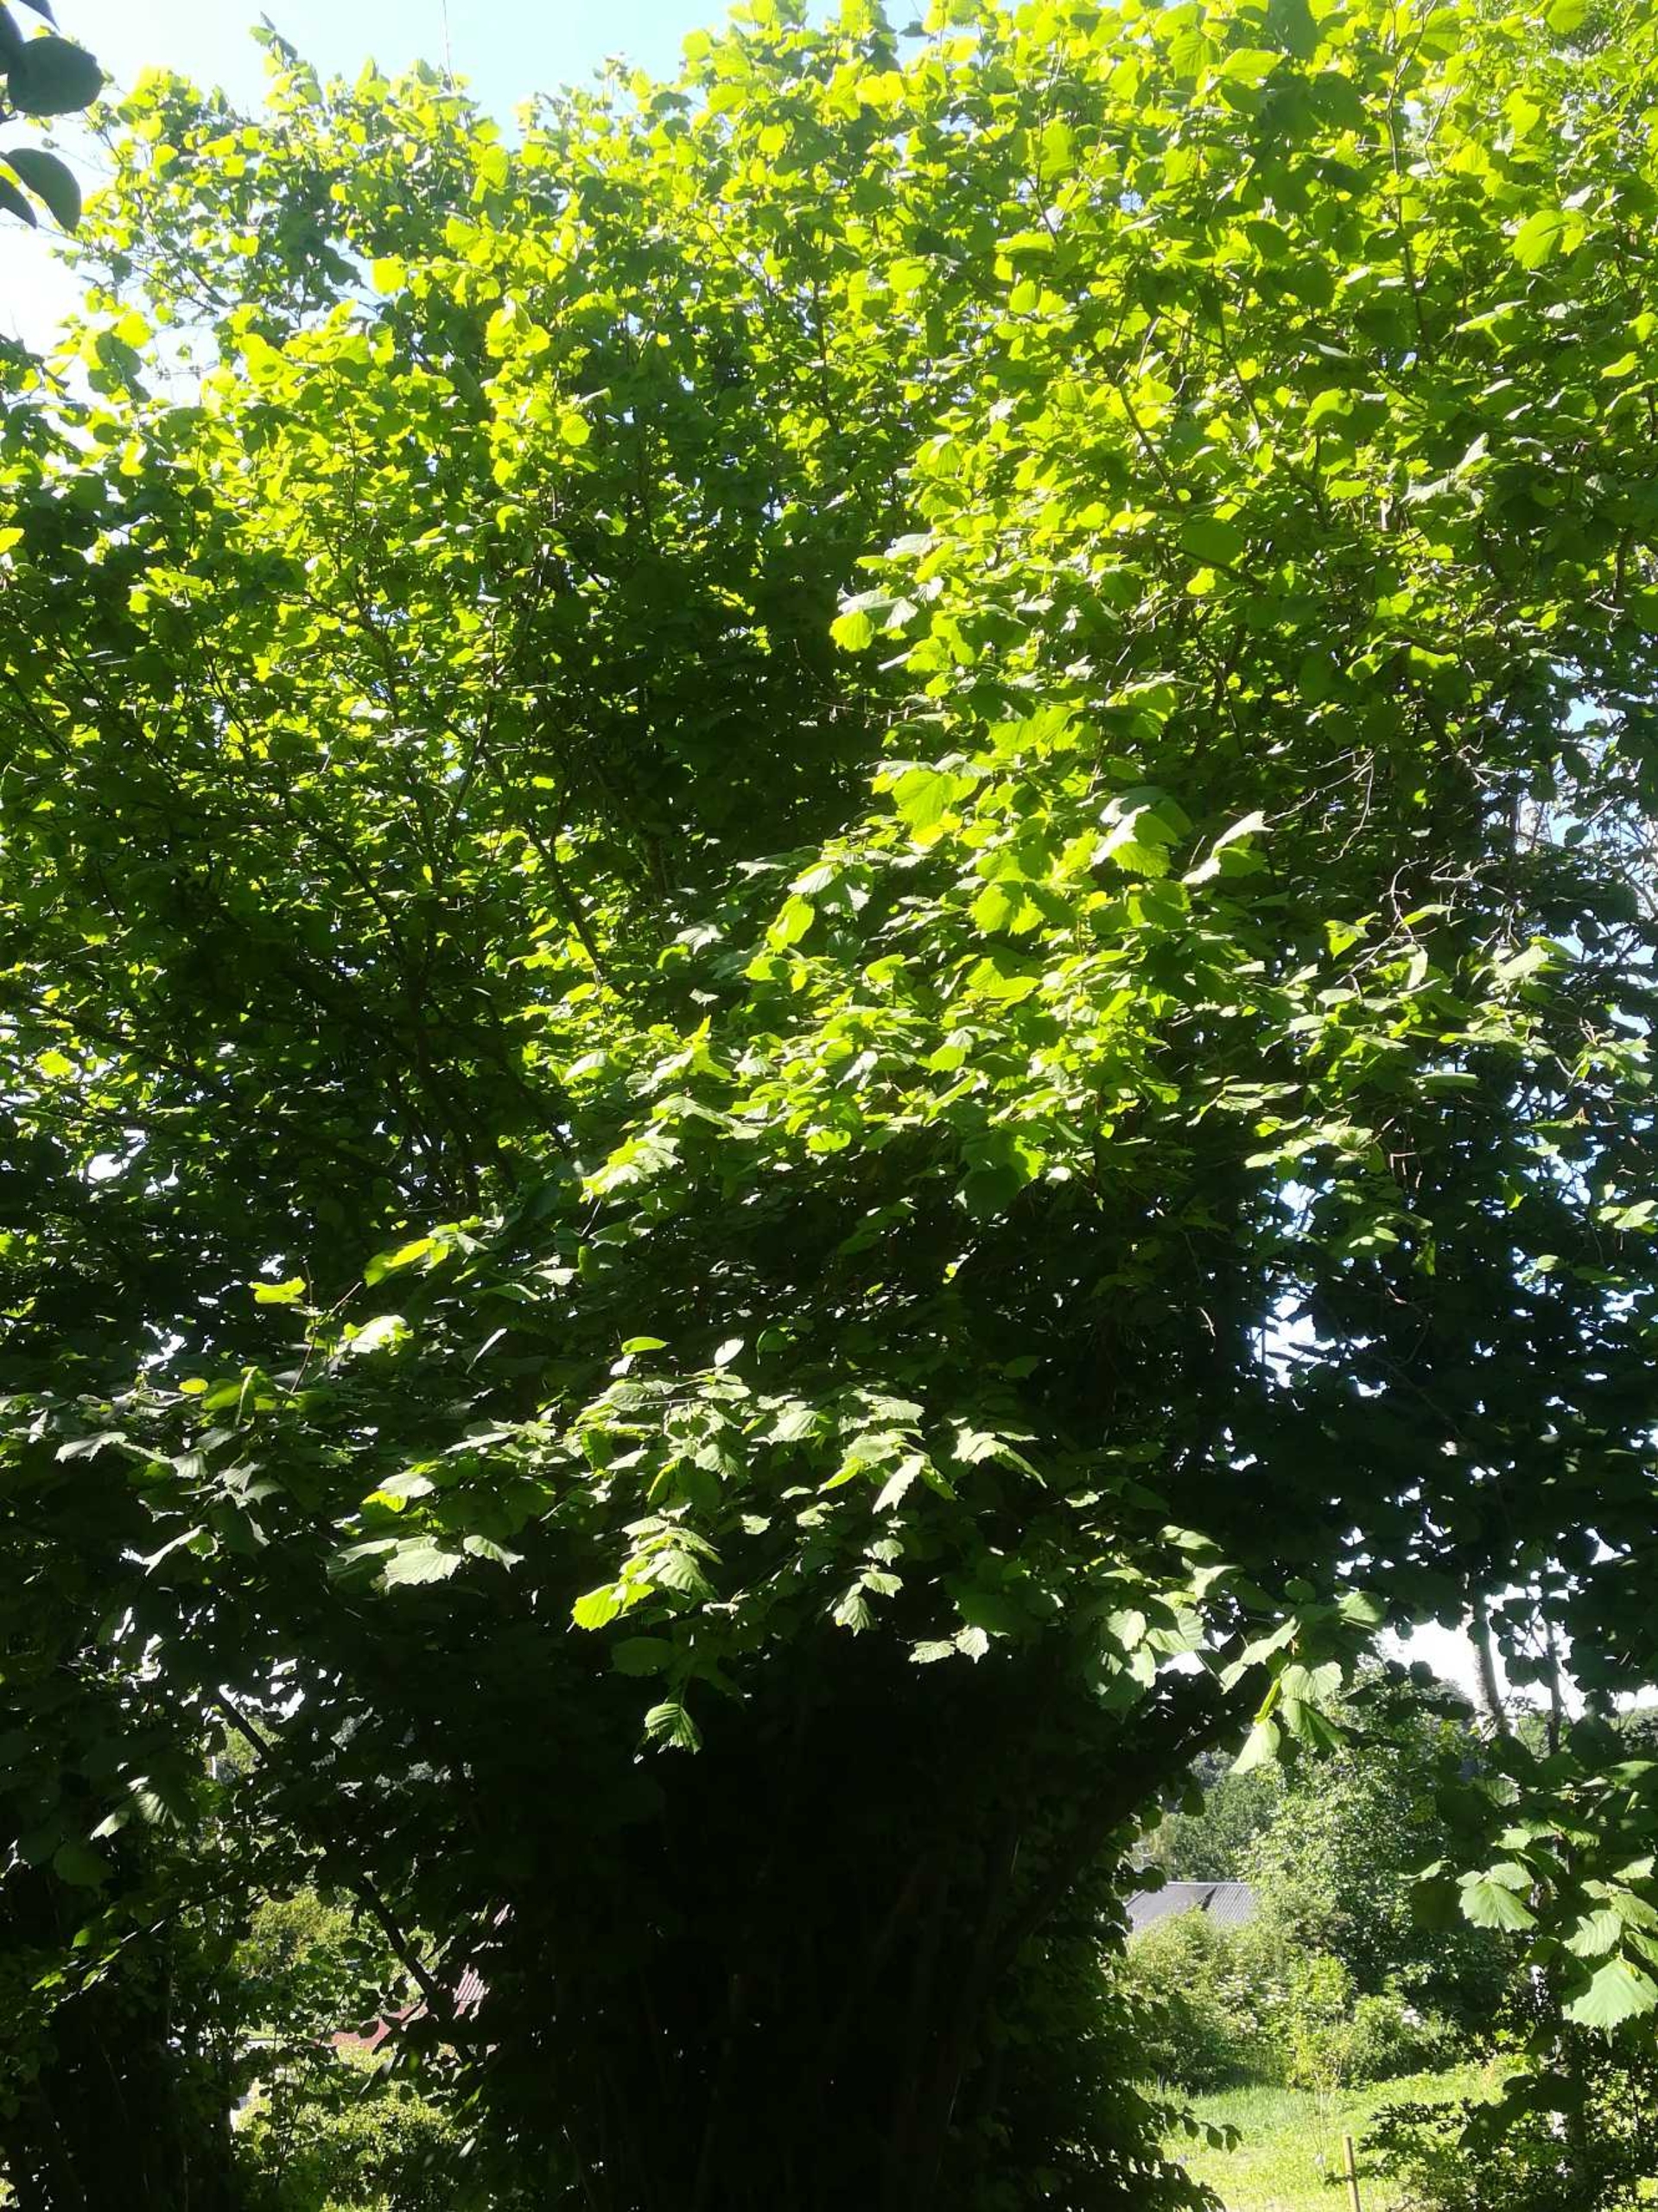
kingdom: Plantae
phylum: Tracheophyta
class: Magnoliopsida
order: Fagales
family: Betulaceae
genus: Corylus
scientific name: Corylus avellana
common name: Hassel
